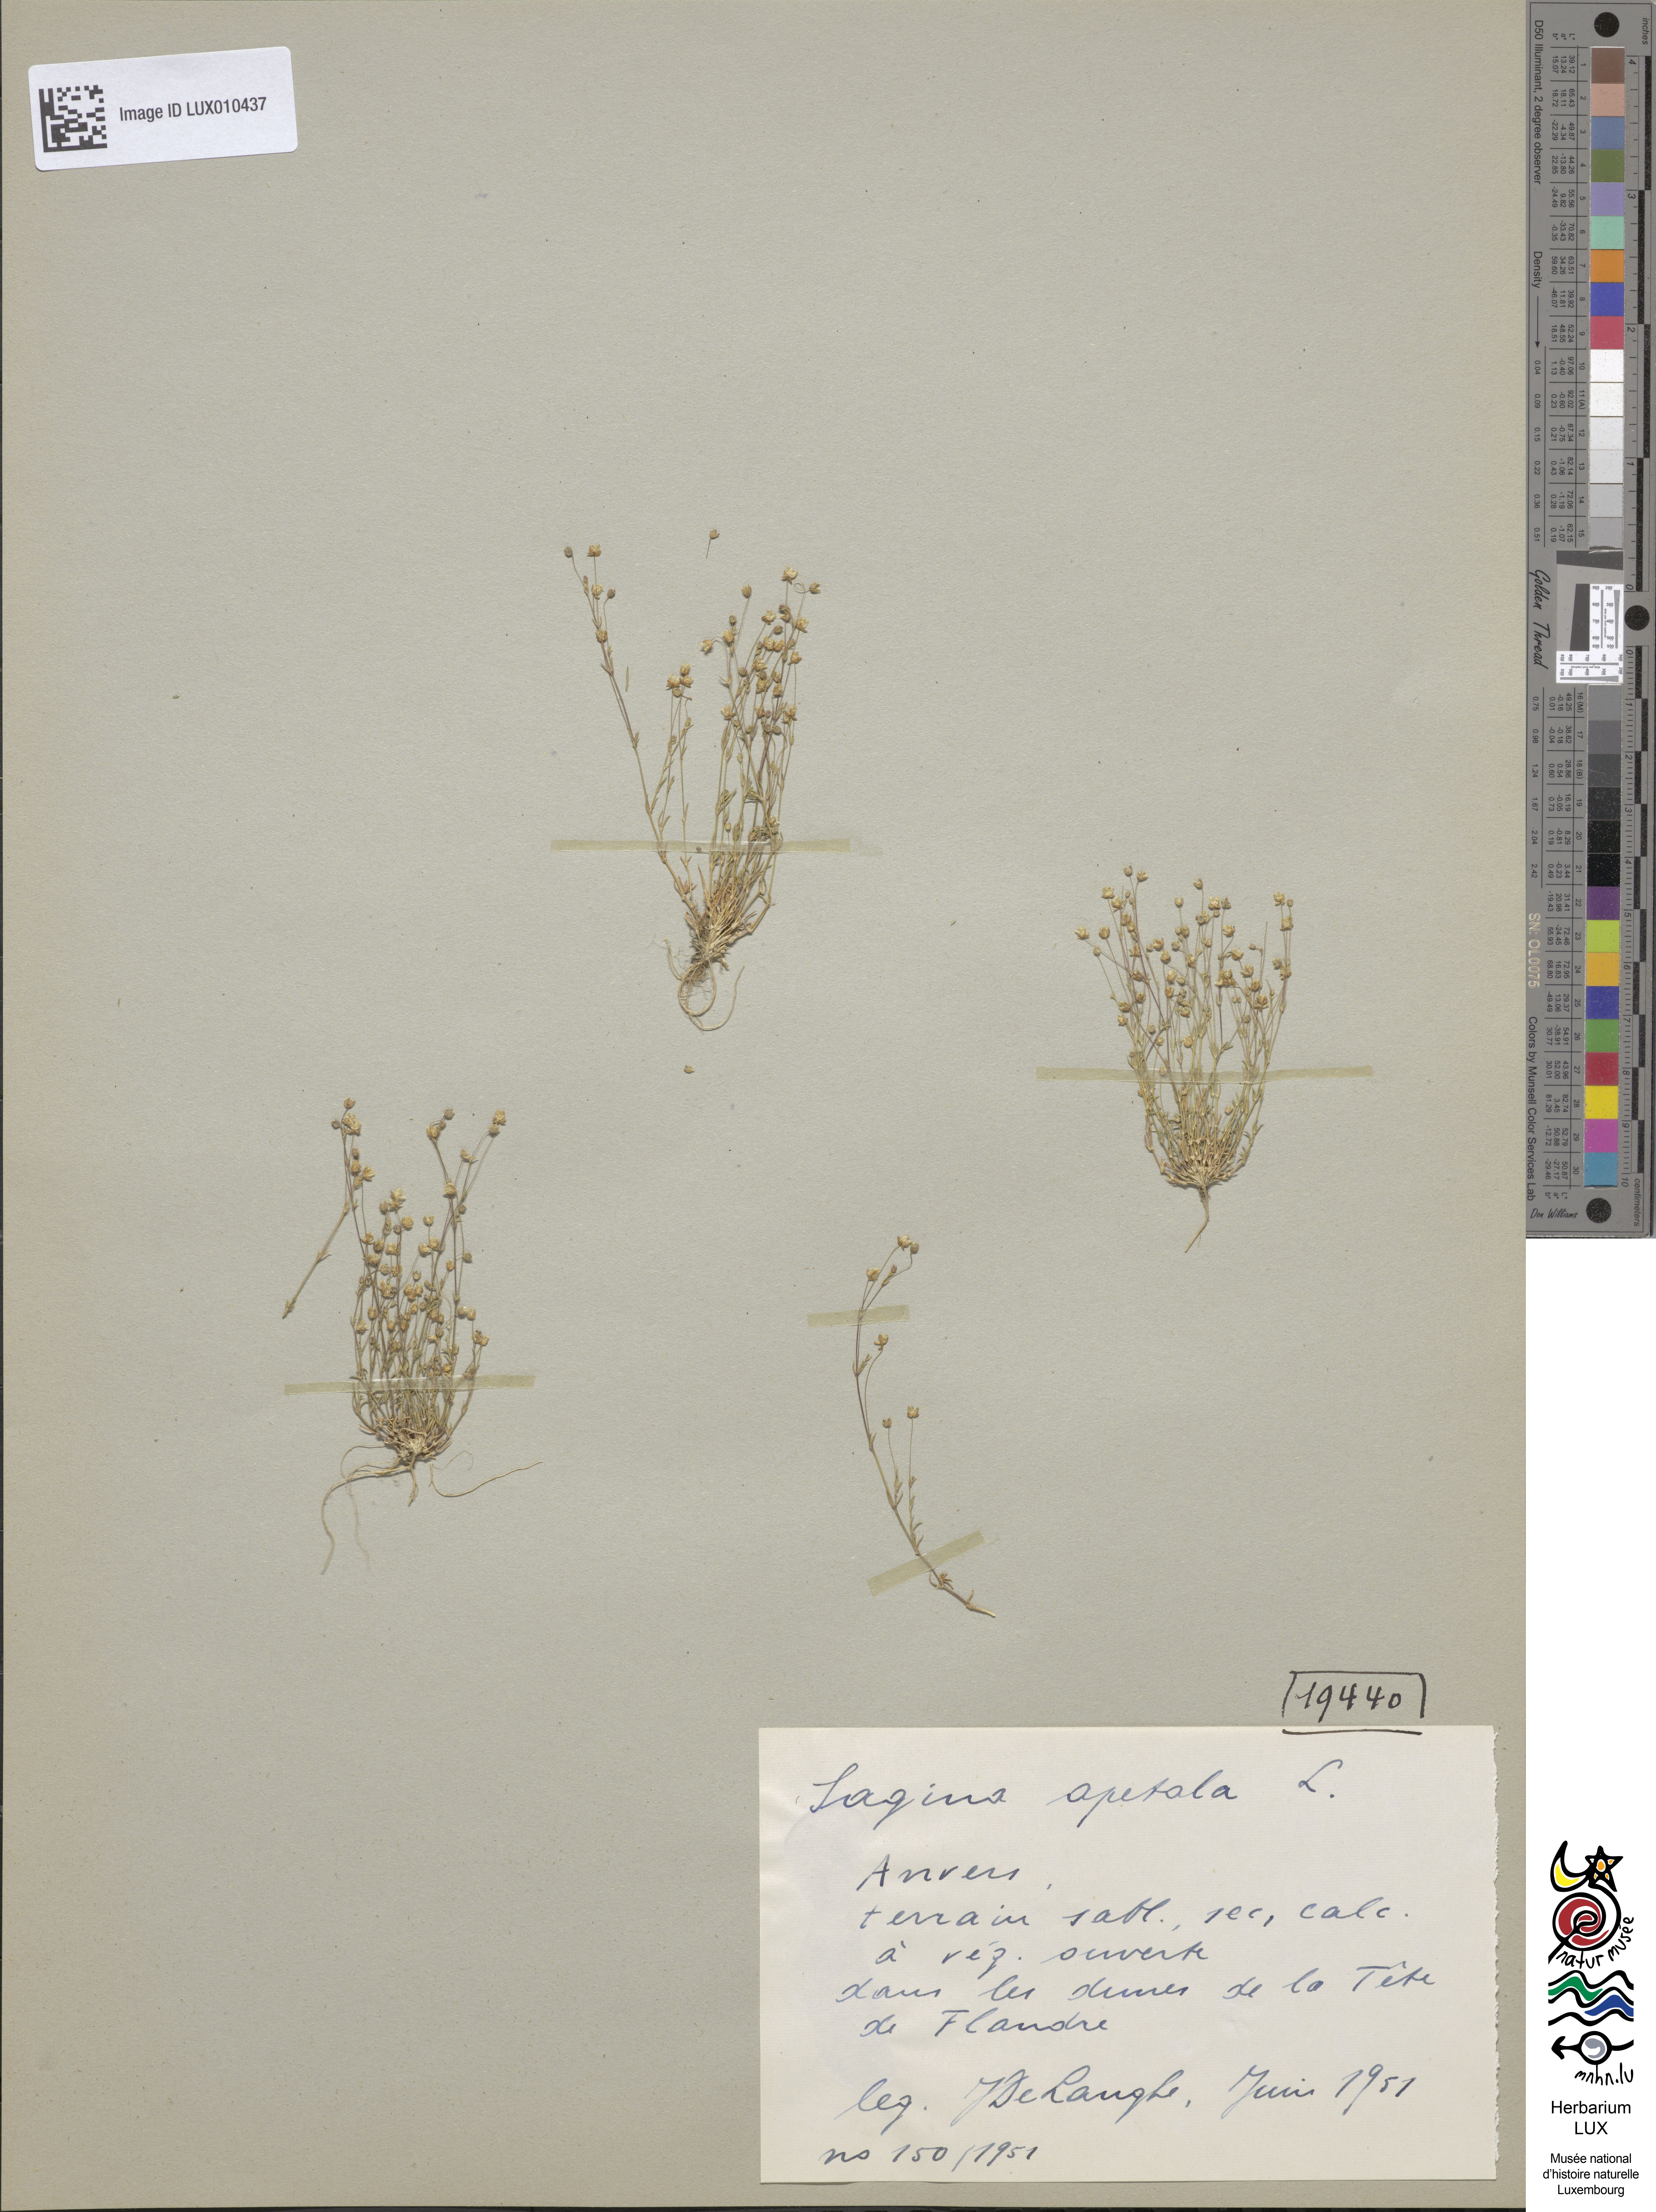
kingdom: Plantae
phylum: Tracheophyta
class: Magnoliopsida
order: Caryophyllales
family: Caryophyllaceae
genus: Sagina
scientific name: Sagina apetala
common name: Annual pearlwort
